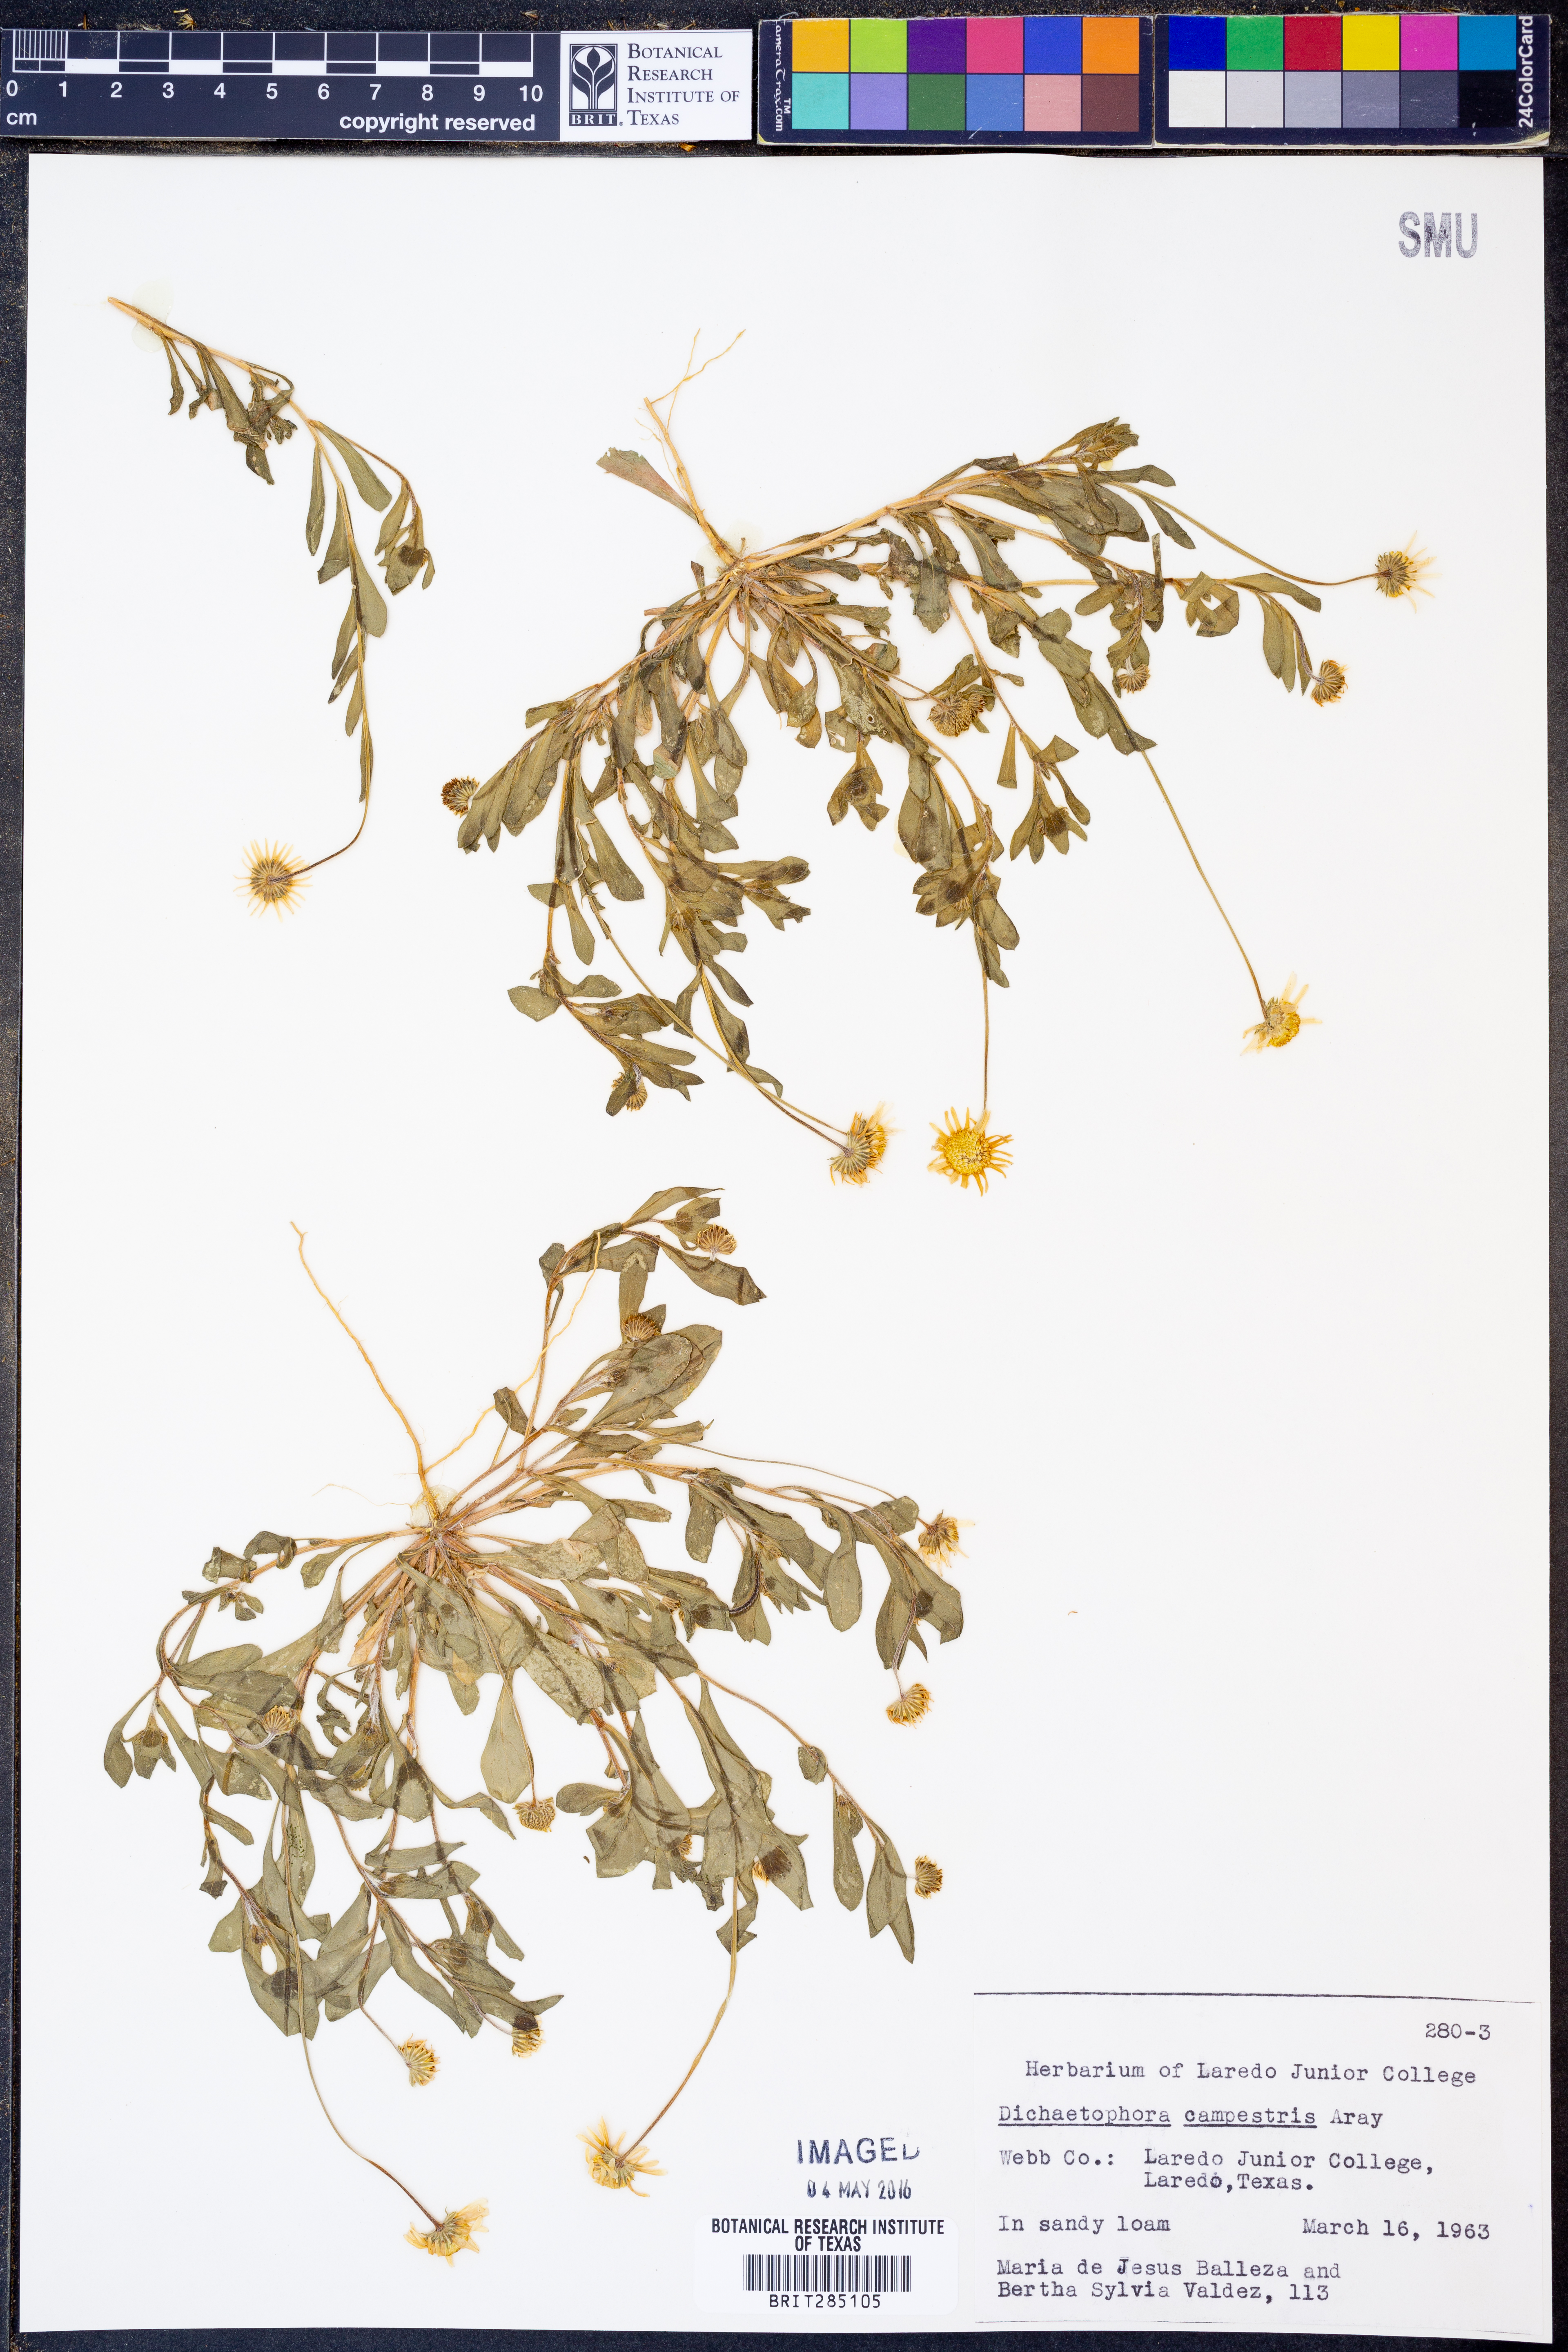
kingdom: Plantae
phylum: Tracheophyta
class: Magnoliopsida
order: Asterales
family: Asteraceae
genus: Dichaetophora
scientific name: Dichaetophora campestris
